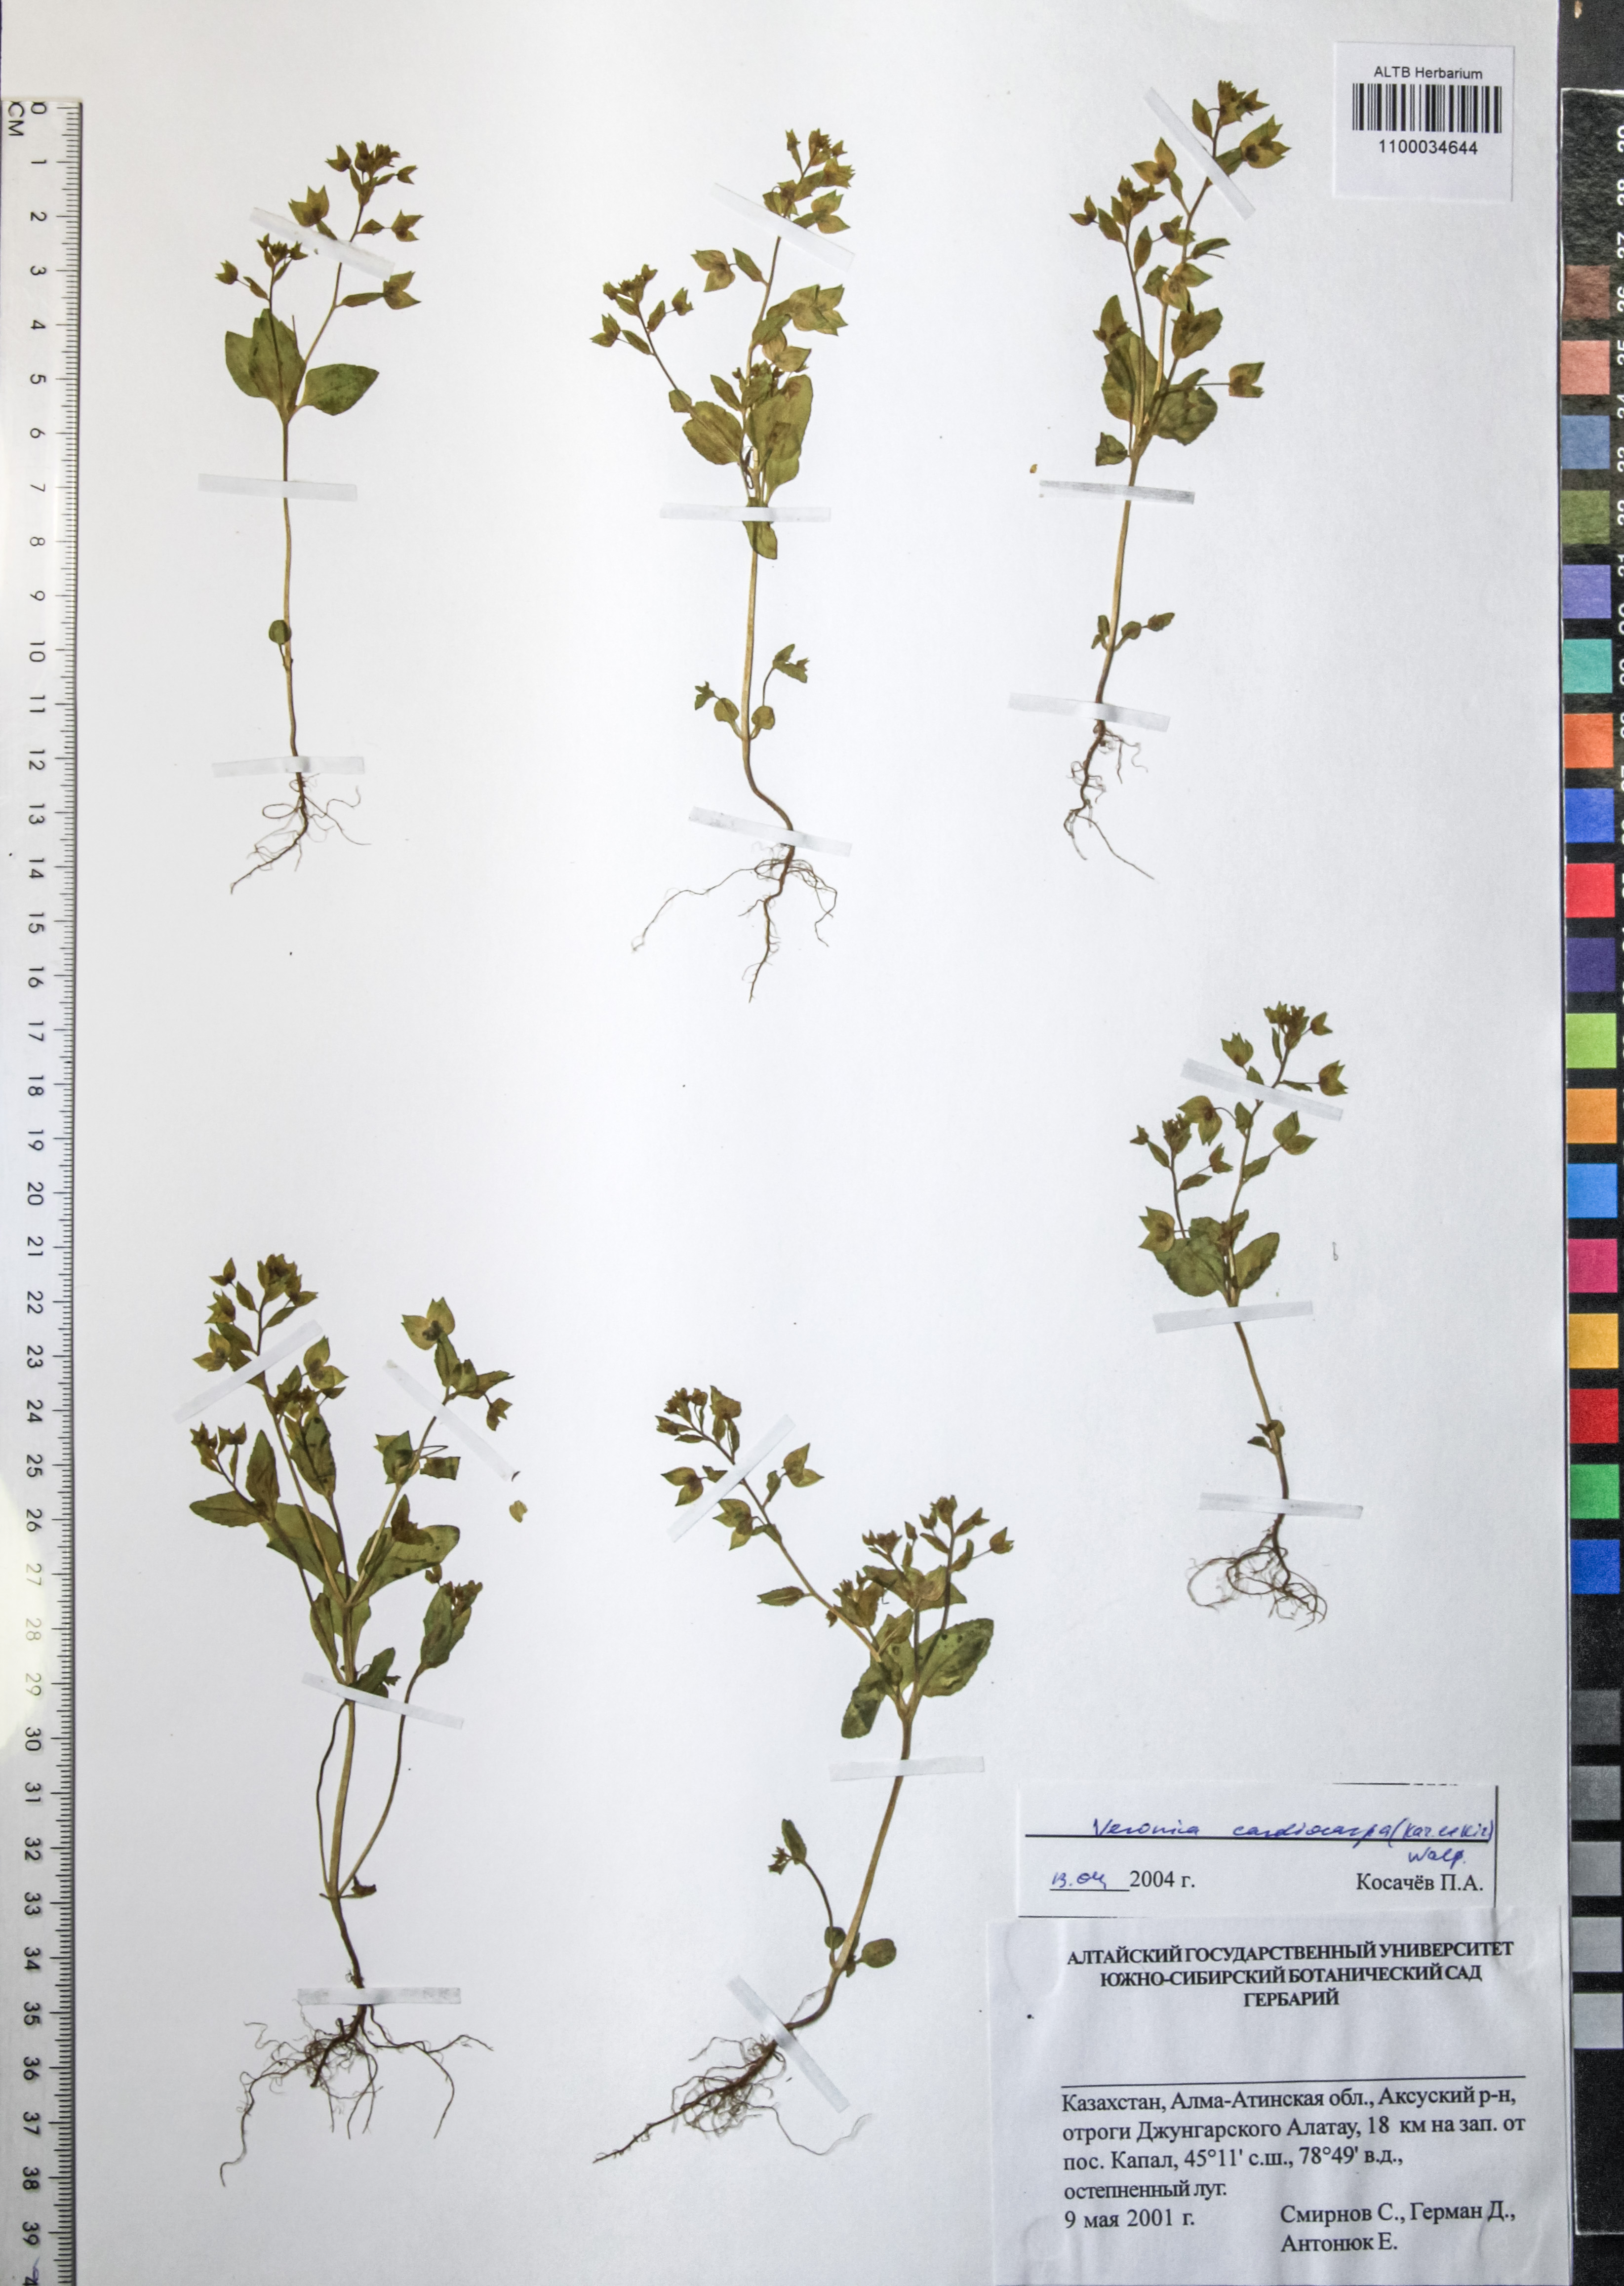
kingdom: Plantae
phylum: Tracheophyta
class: Magnoliopsida
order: Lamiales
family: Plantaginaceae
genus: Veronica
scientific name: Veronica cardiocarpa
